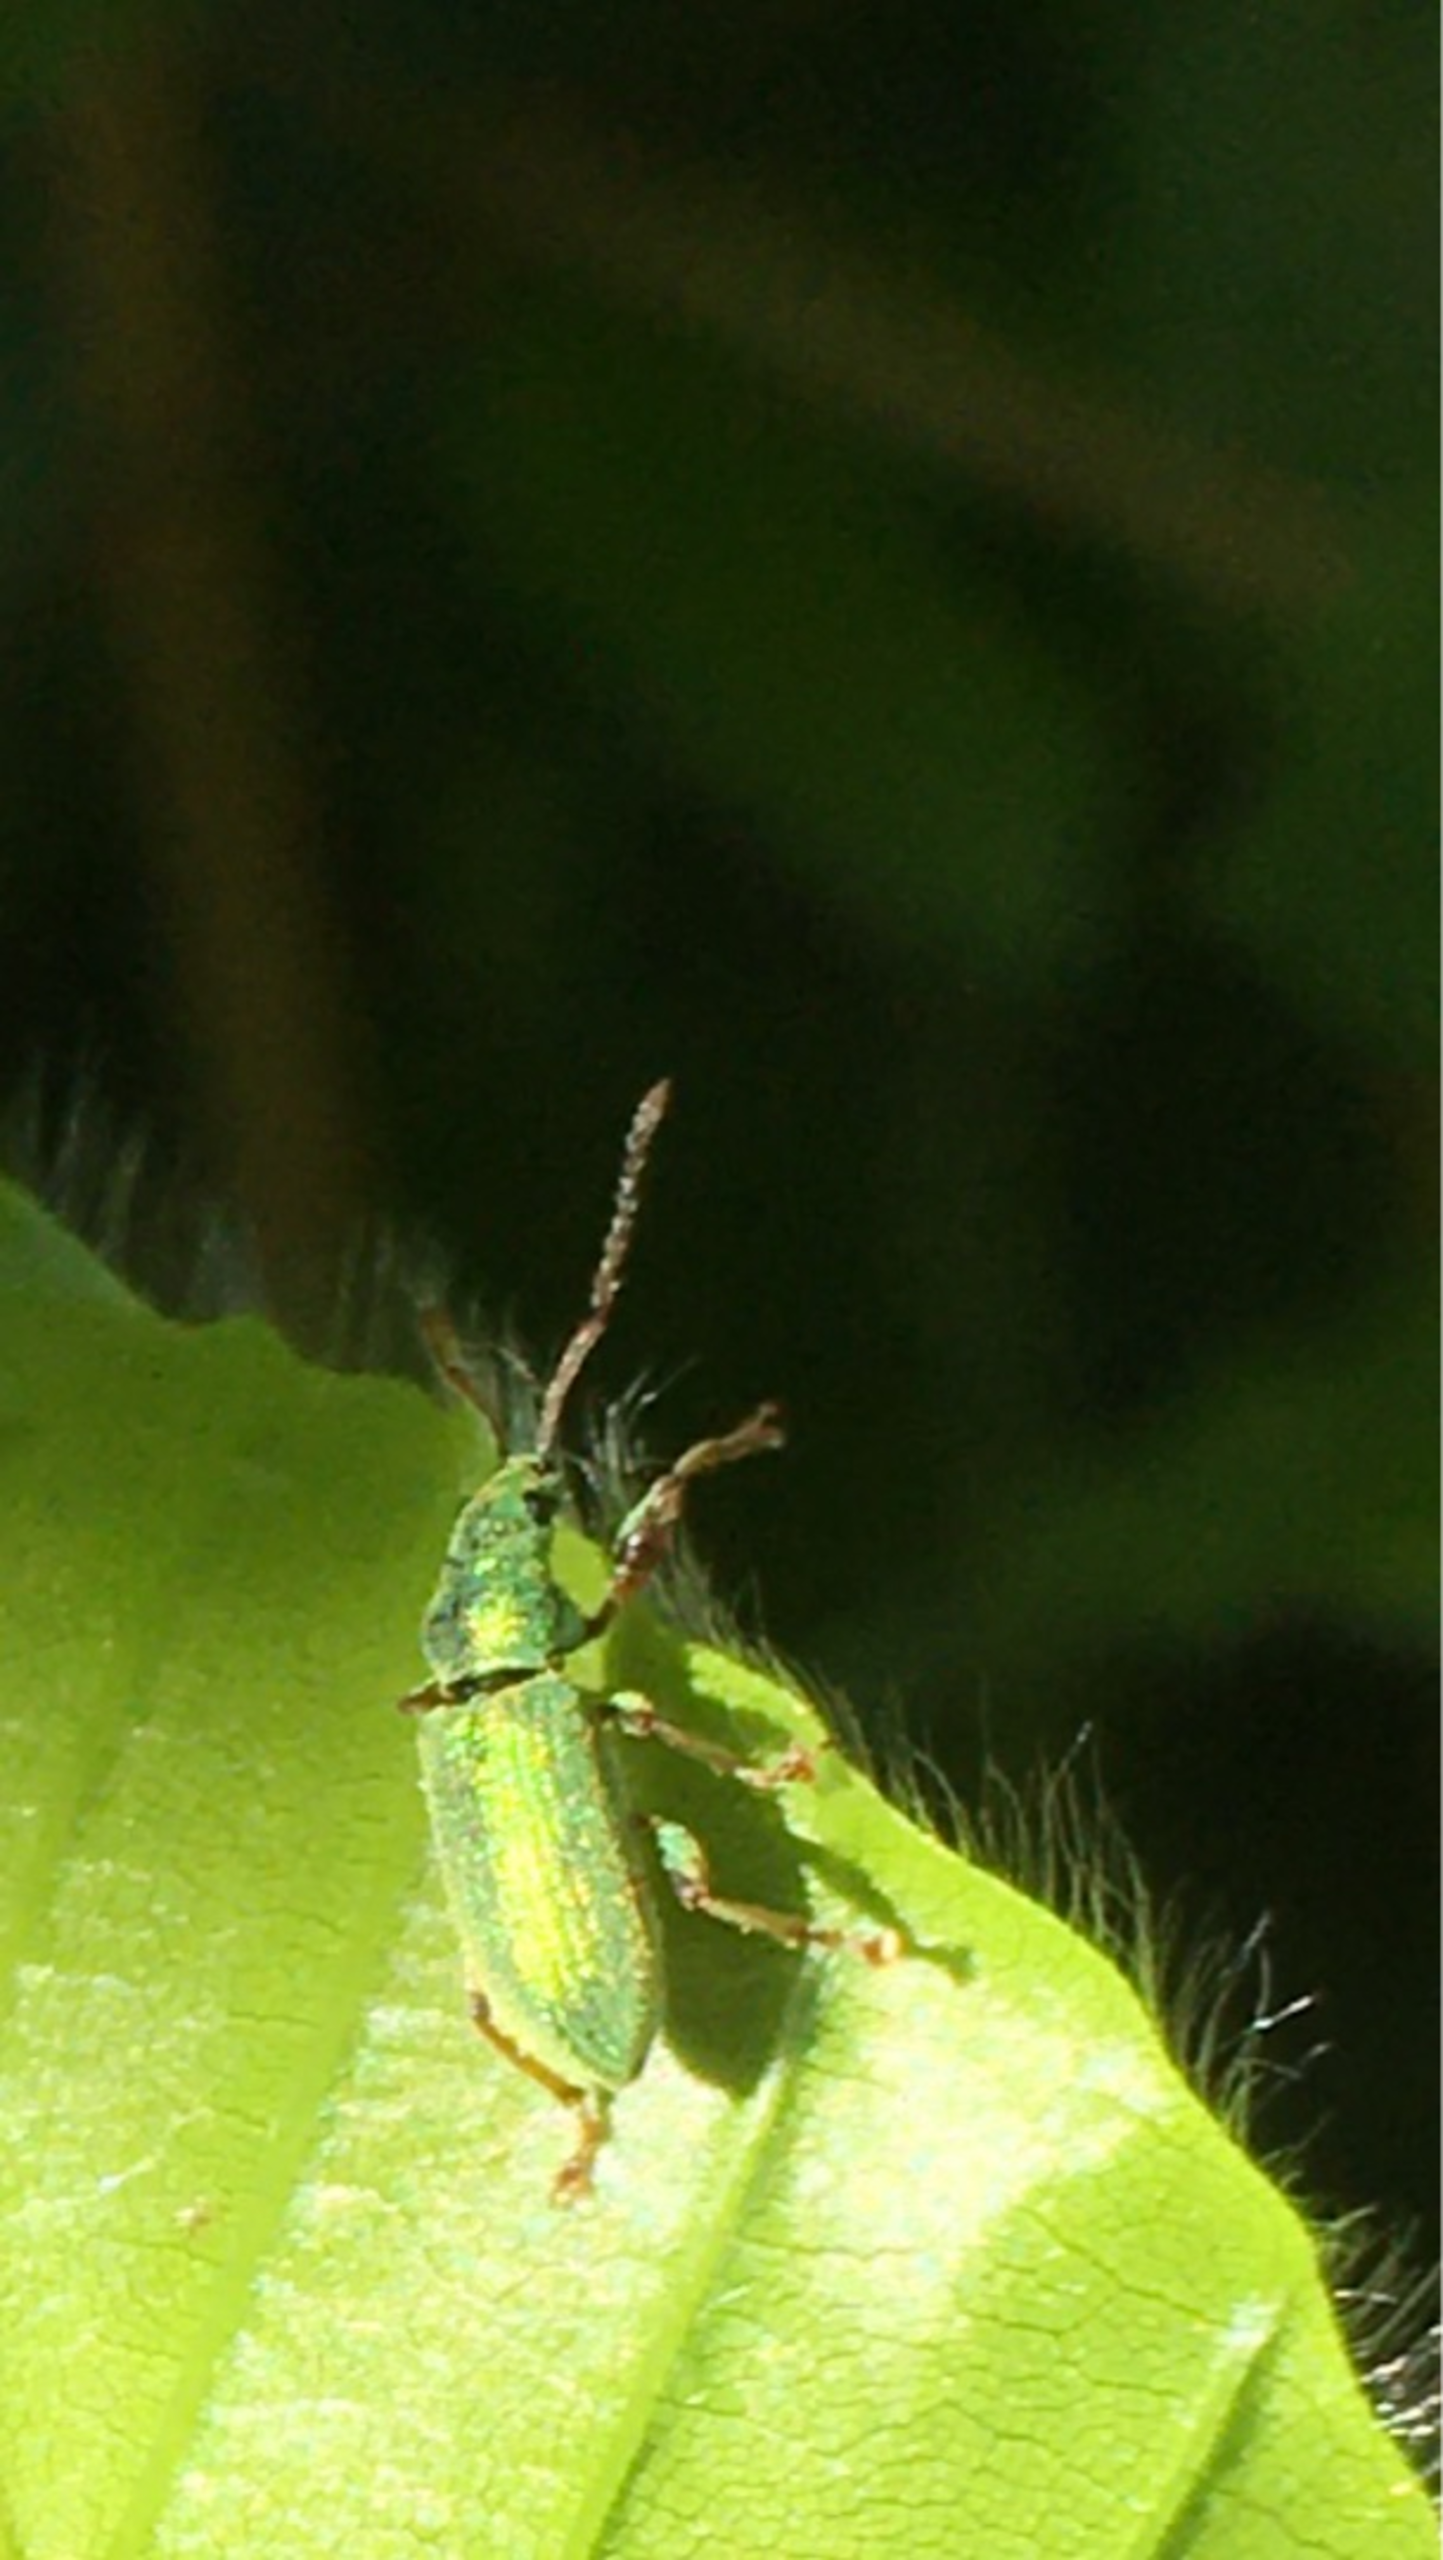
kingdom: Animalia
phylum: Arthropoda
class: Insecta
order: Coleoptera
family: Curculionidae
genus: Phyllobius
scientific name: Phyllobius argentatus
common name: Bøgeløvsnudebille
